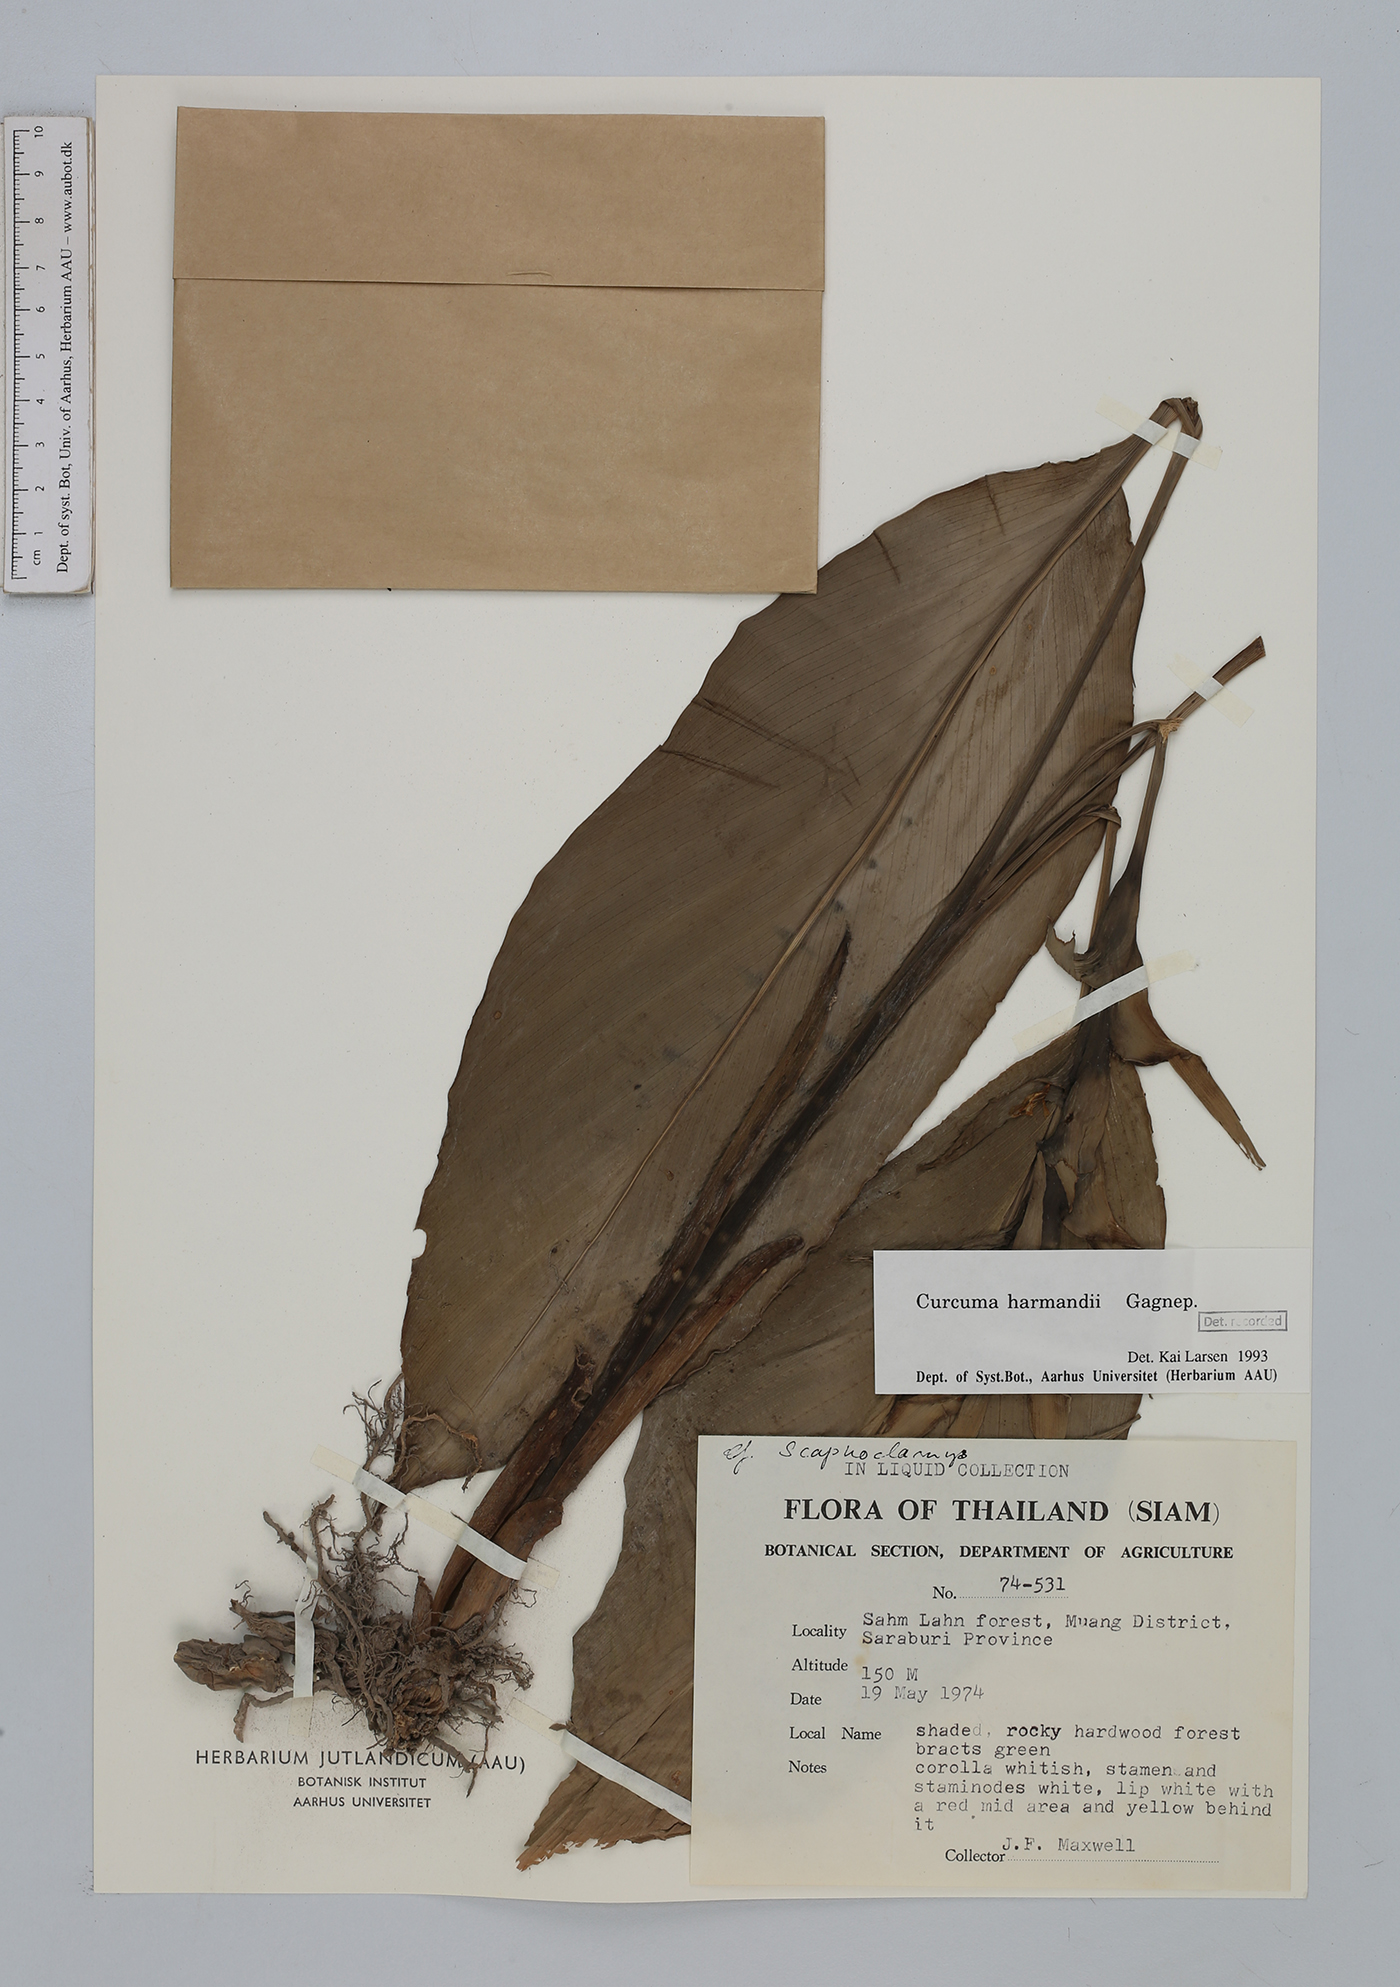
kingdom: Plantae
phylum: Tracheophyta
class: Liliopsida
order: Zingiberales
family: Zingiberaceae
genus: Curcuma
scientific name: Curcuma harmandii
